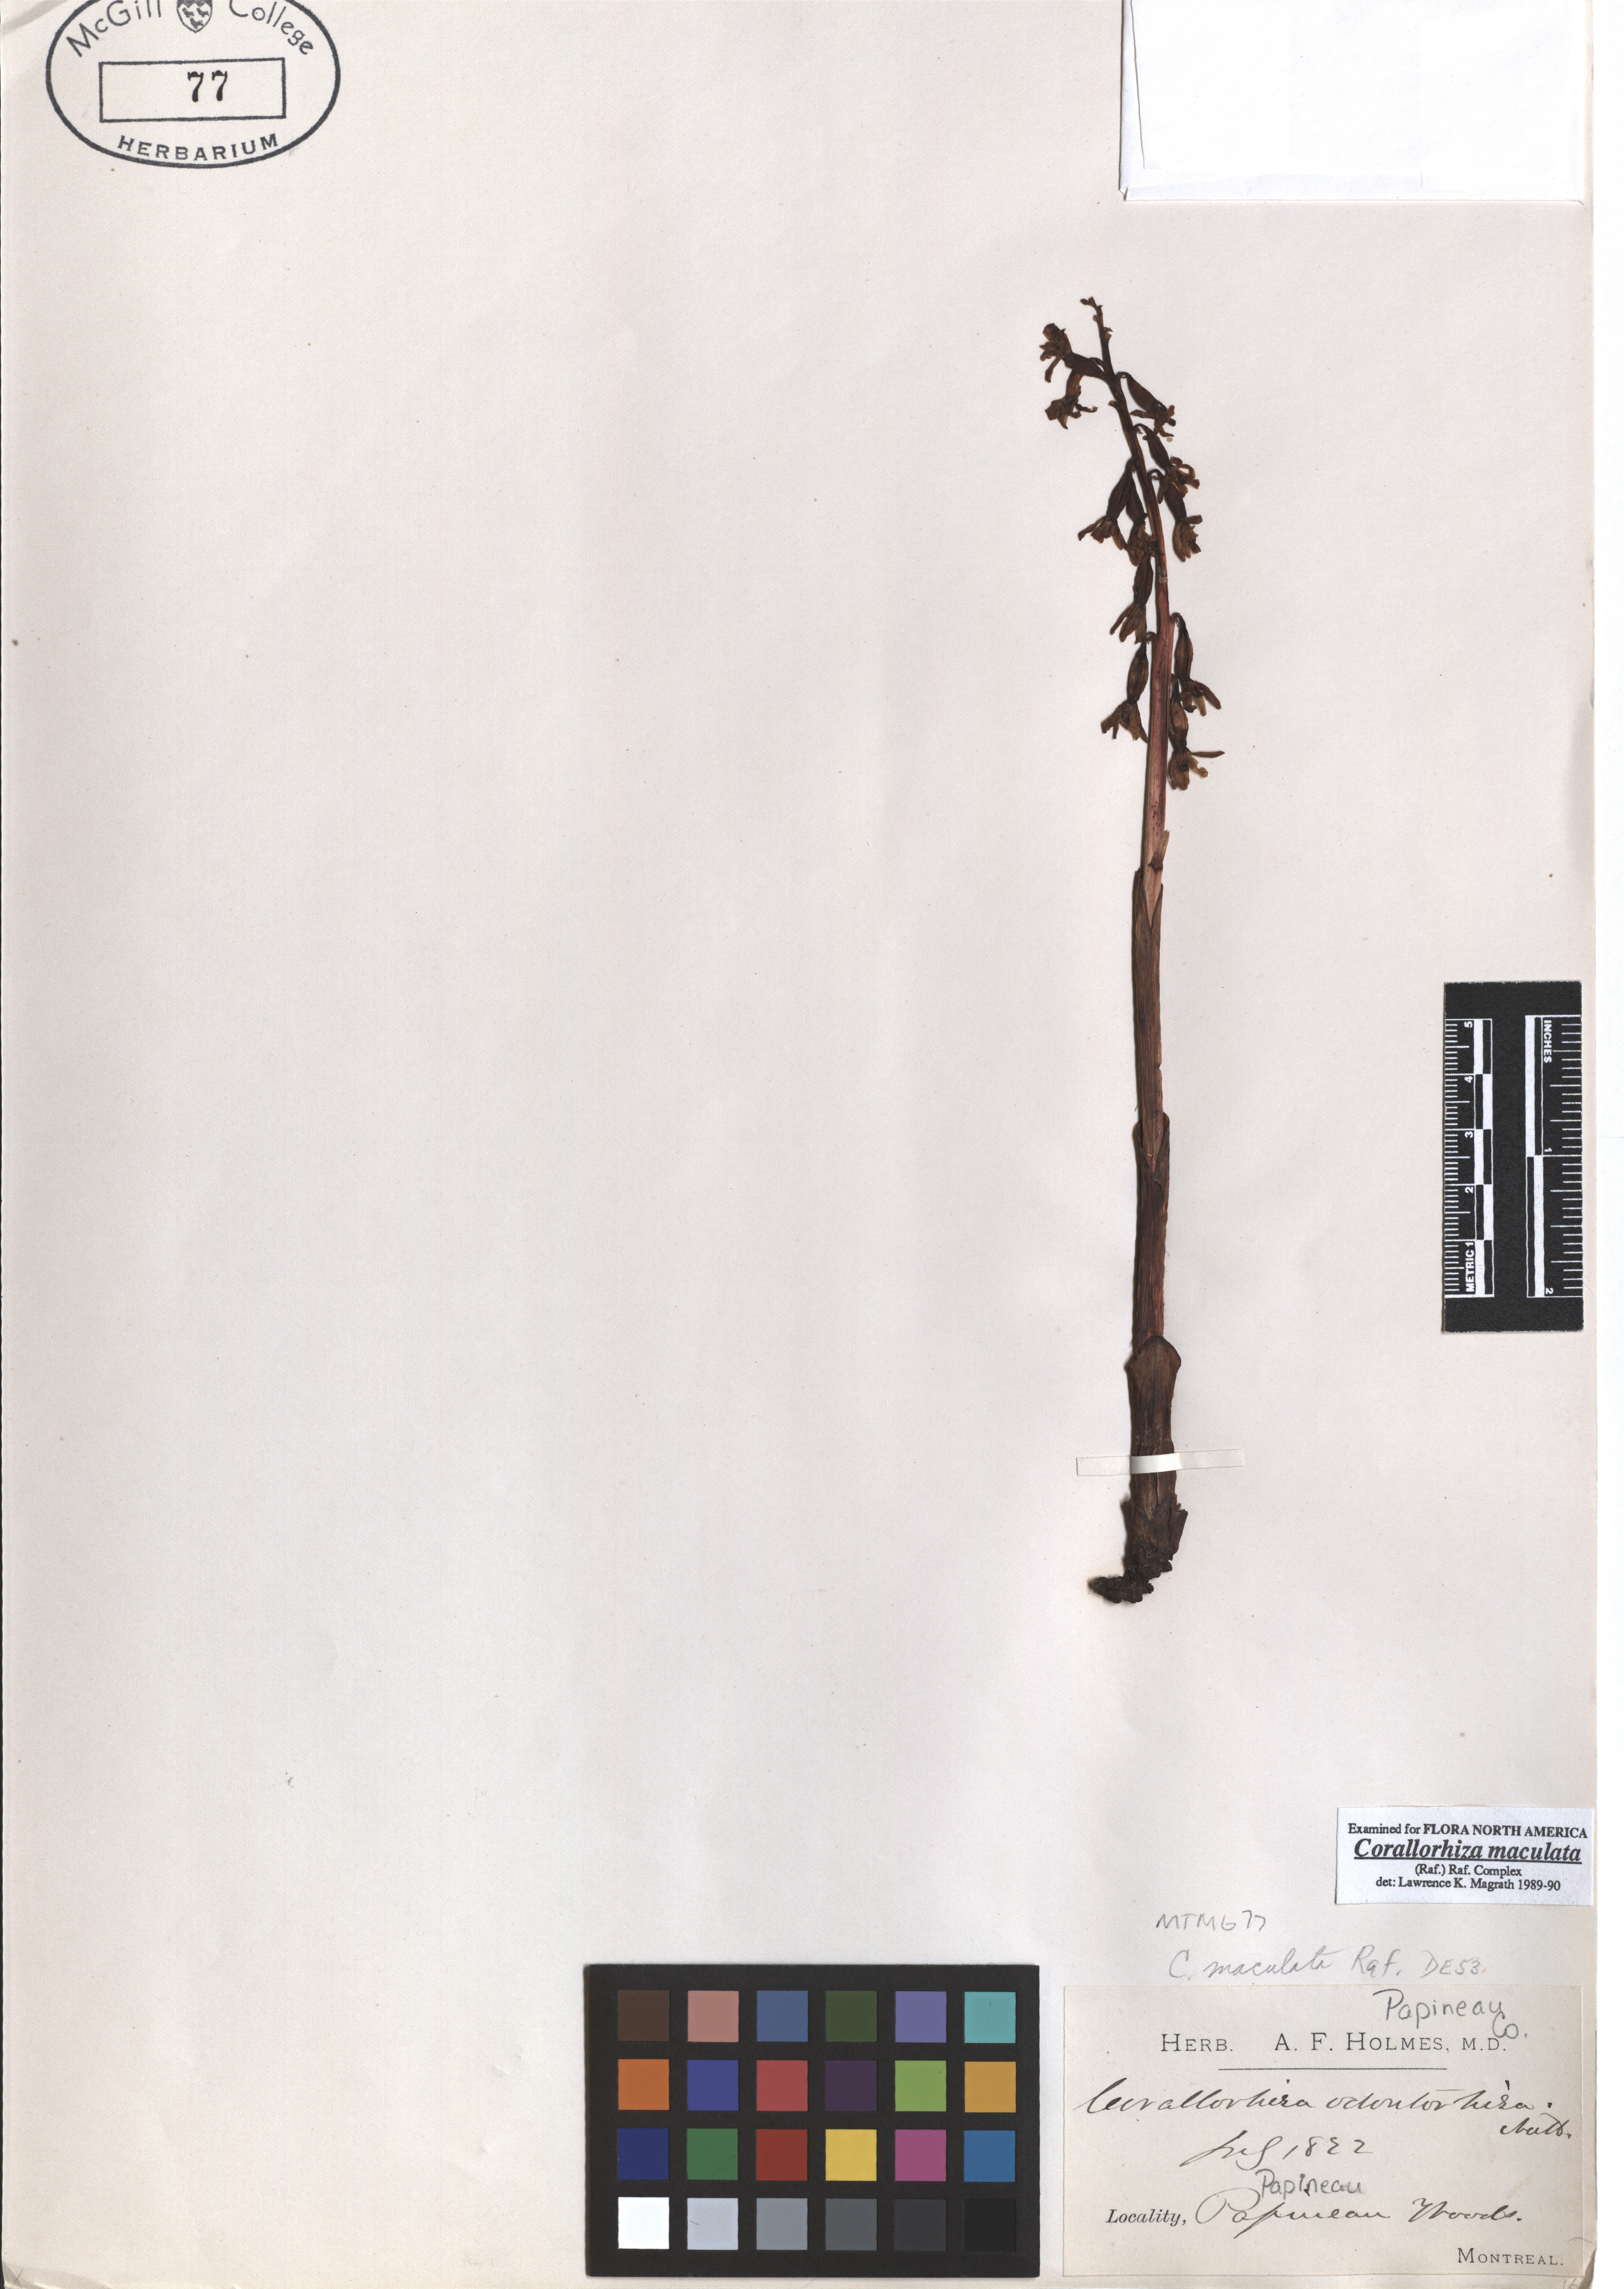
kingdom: Plantae
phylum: Tracheophyta
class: Liliopsida
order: Asparagales
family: Orchidaceae
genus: Corallorhiza
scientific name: Corallorhiza maculata
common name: Spotted coralroot
